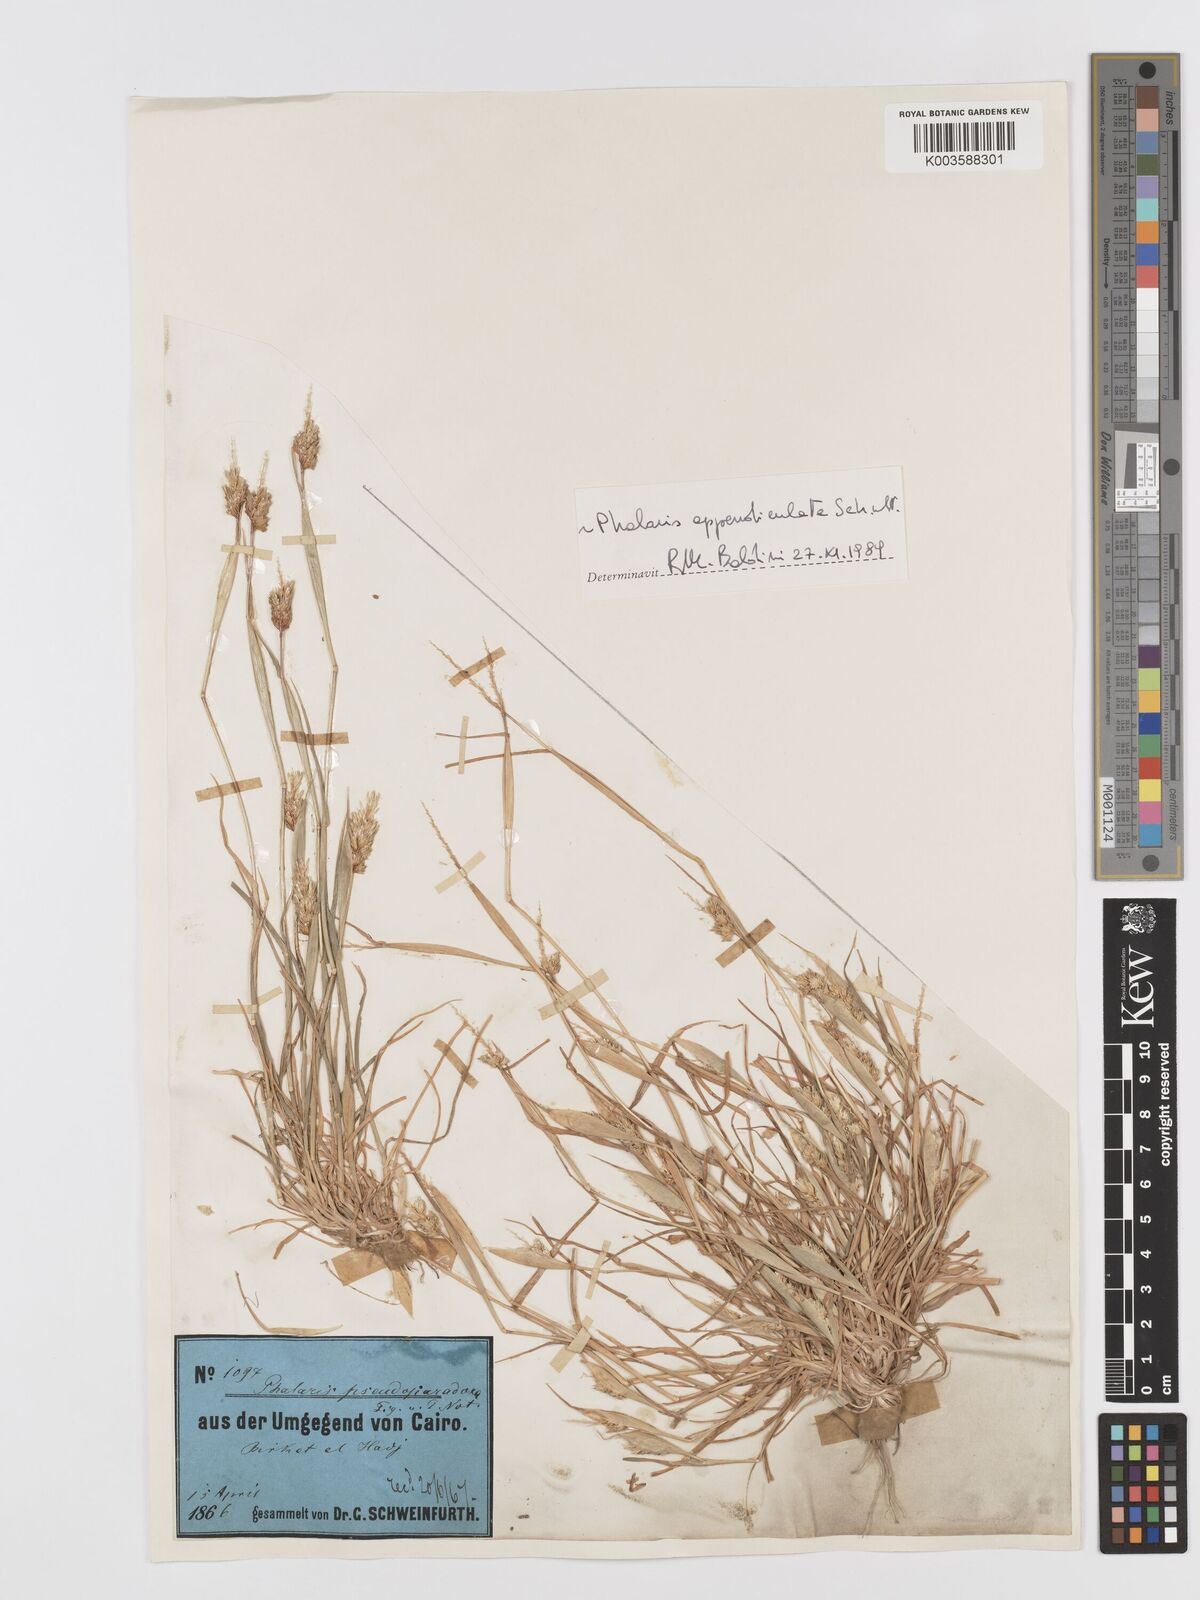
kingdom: Plantae
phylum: Tracheophyta
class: Liliopsida
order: Poales
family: Poaceae
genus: Phalaris
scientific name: Phalaris paradoxa
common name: Awned canary-grass
